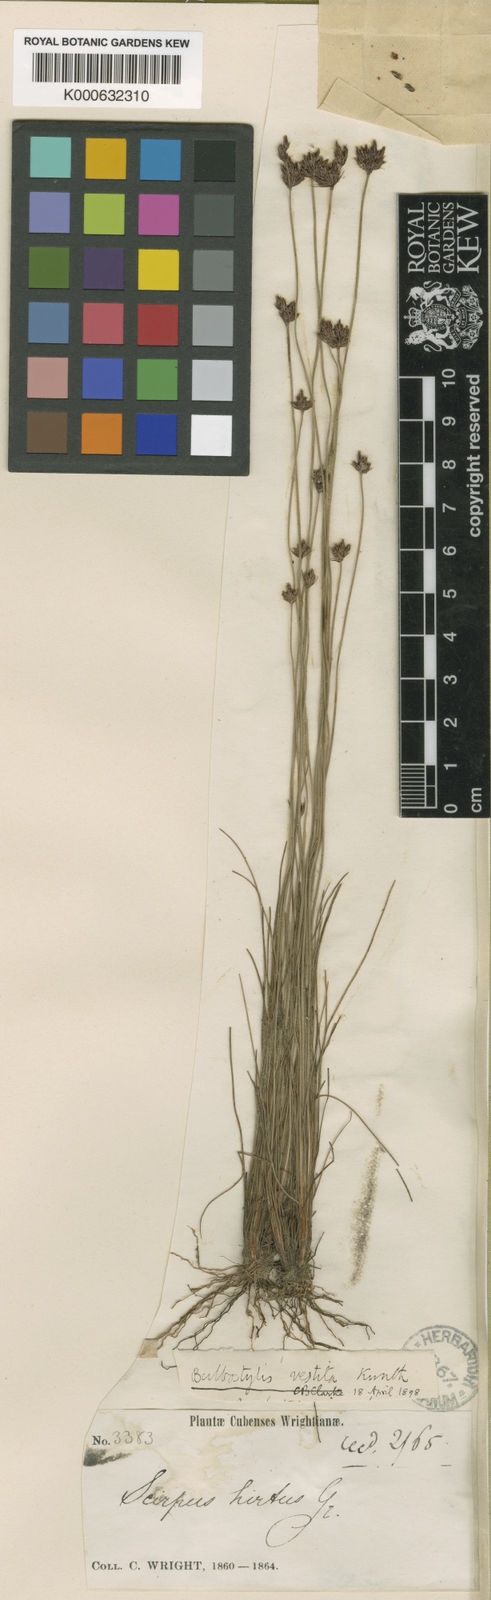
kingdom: Plantae
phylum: Tracheophyta
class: Liliopsida
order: Poales
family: Cyperaceae
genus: Bulbostylis
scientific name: Bulbostylis vestita
